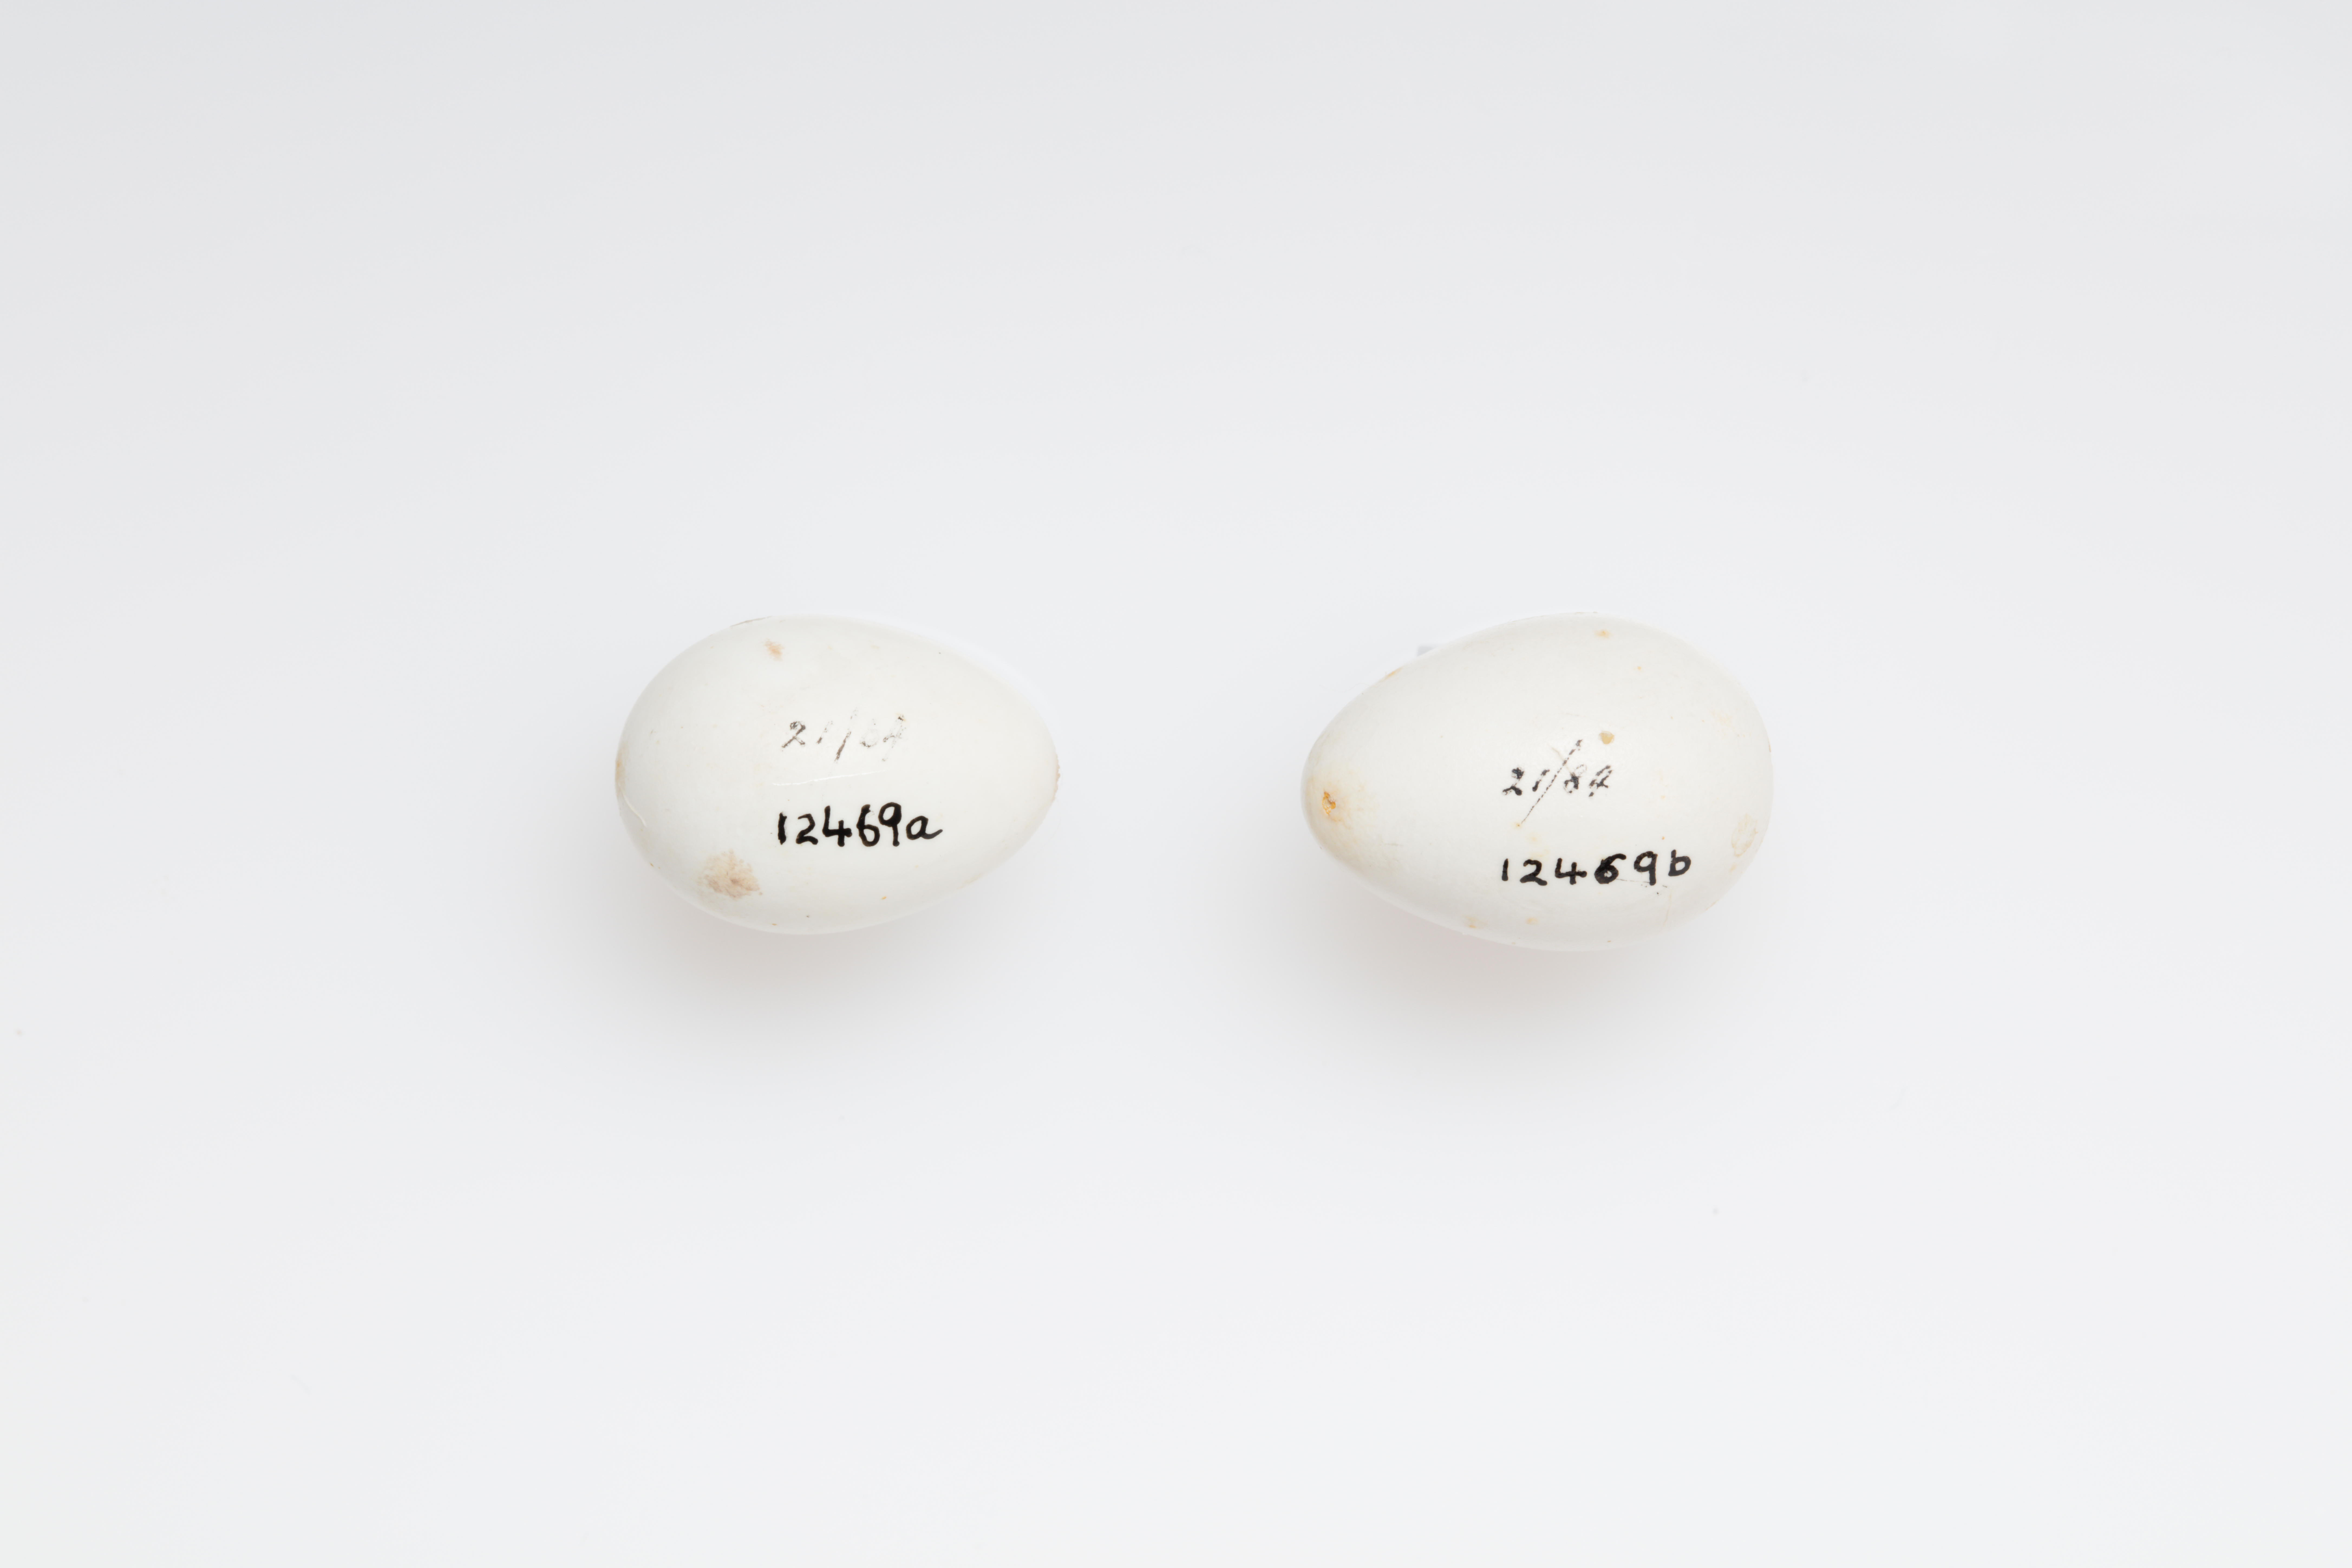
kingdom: Animalia
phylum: Chordata
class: Aves
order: Passeriformes
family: Hirundinidae
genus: Delichon
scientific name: Delichon urbicum
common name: Common house martin
